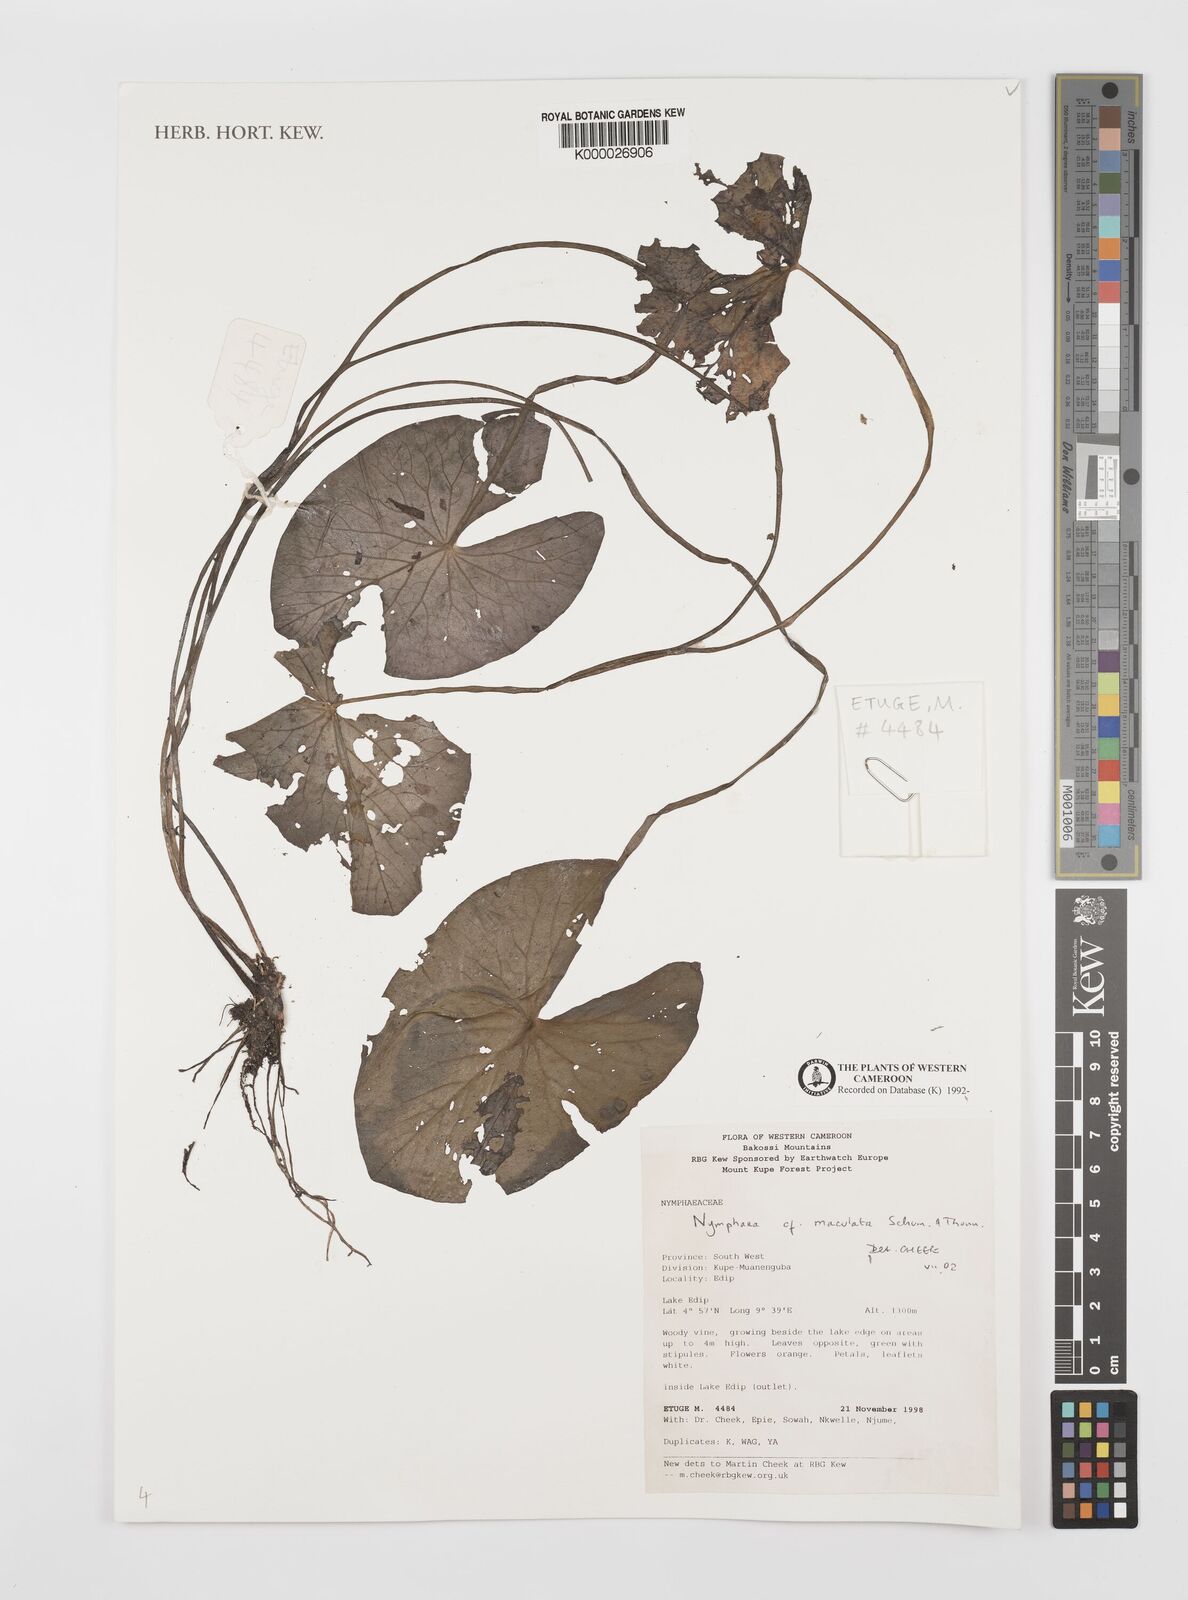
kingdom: Plantae
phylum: Tracheophyta
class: Magnoliopsida
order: Nymphaeales
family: Nymphaeaceae
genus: Nymphaea
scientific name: Nymphaea maculata
